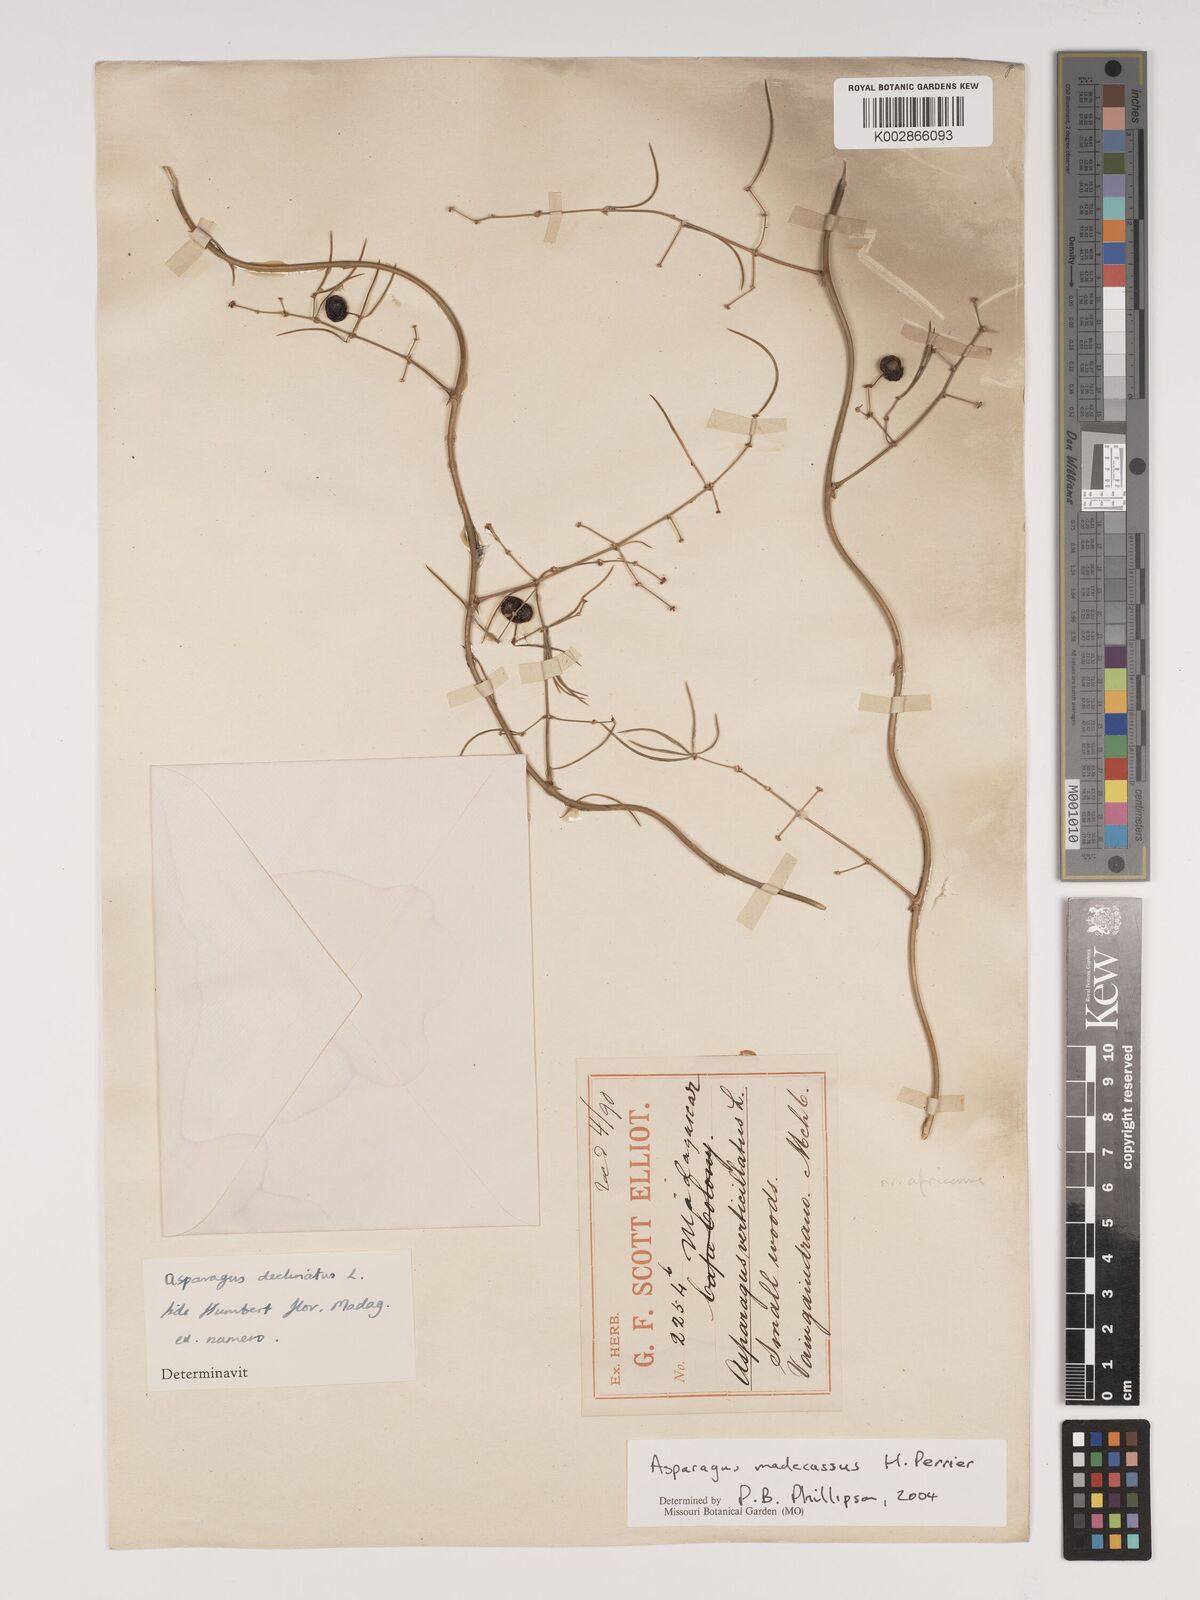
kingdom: Plantae
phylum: Tracheophyta
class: Liliopsida
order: Asparagales
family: Asparagaceae
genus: Asparagus
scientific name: Asparagus madecassus
